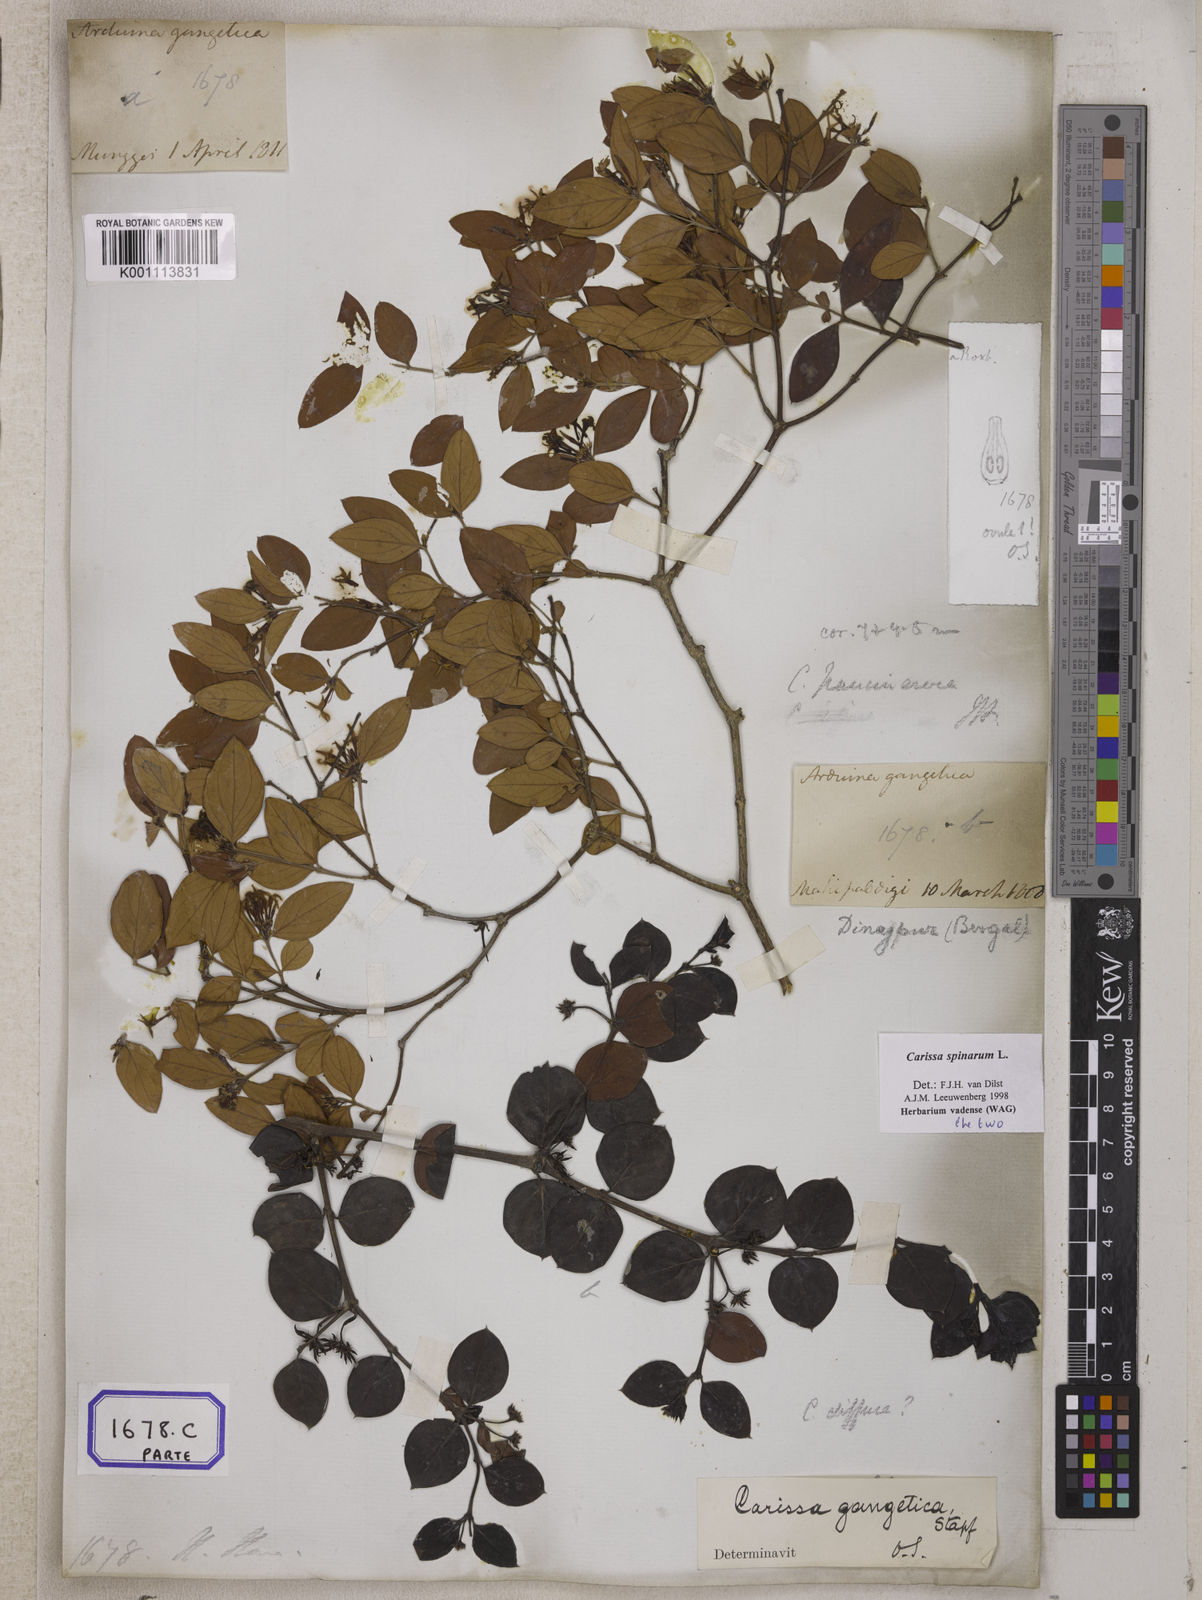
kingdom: Plantae
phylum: Tracheophyta
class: Magnoliopsida
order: Gentianales
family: Apocynaceae
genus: Carissa
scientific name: Carissa spinarum
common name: Egyptian carissa
